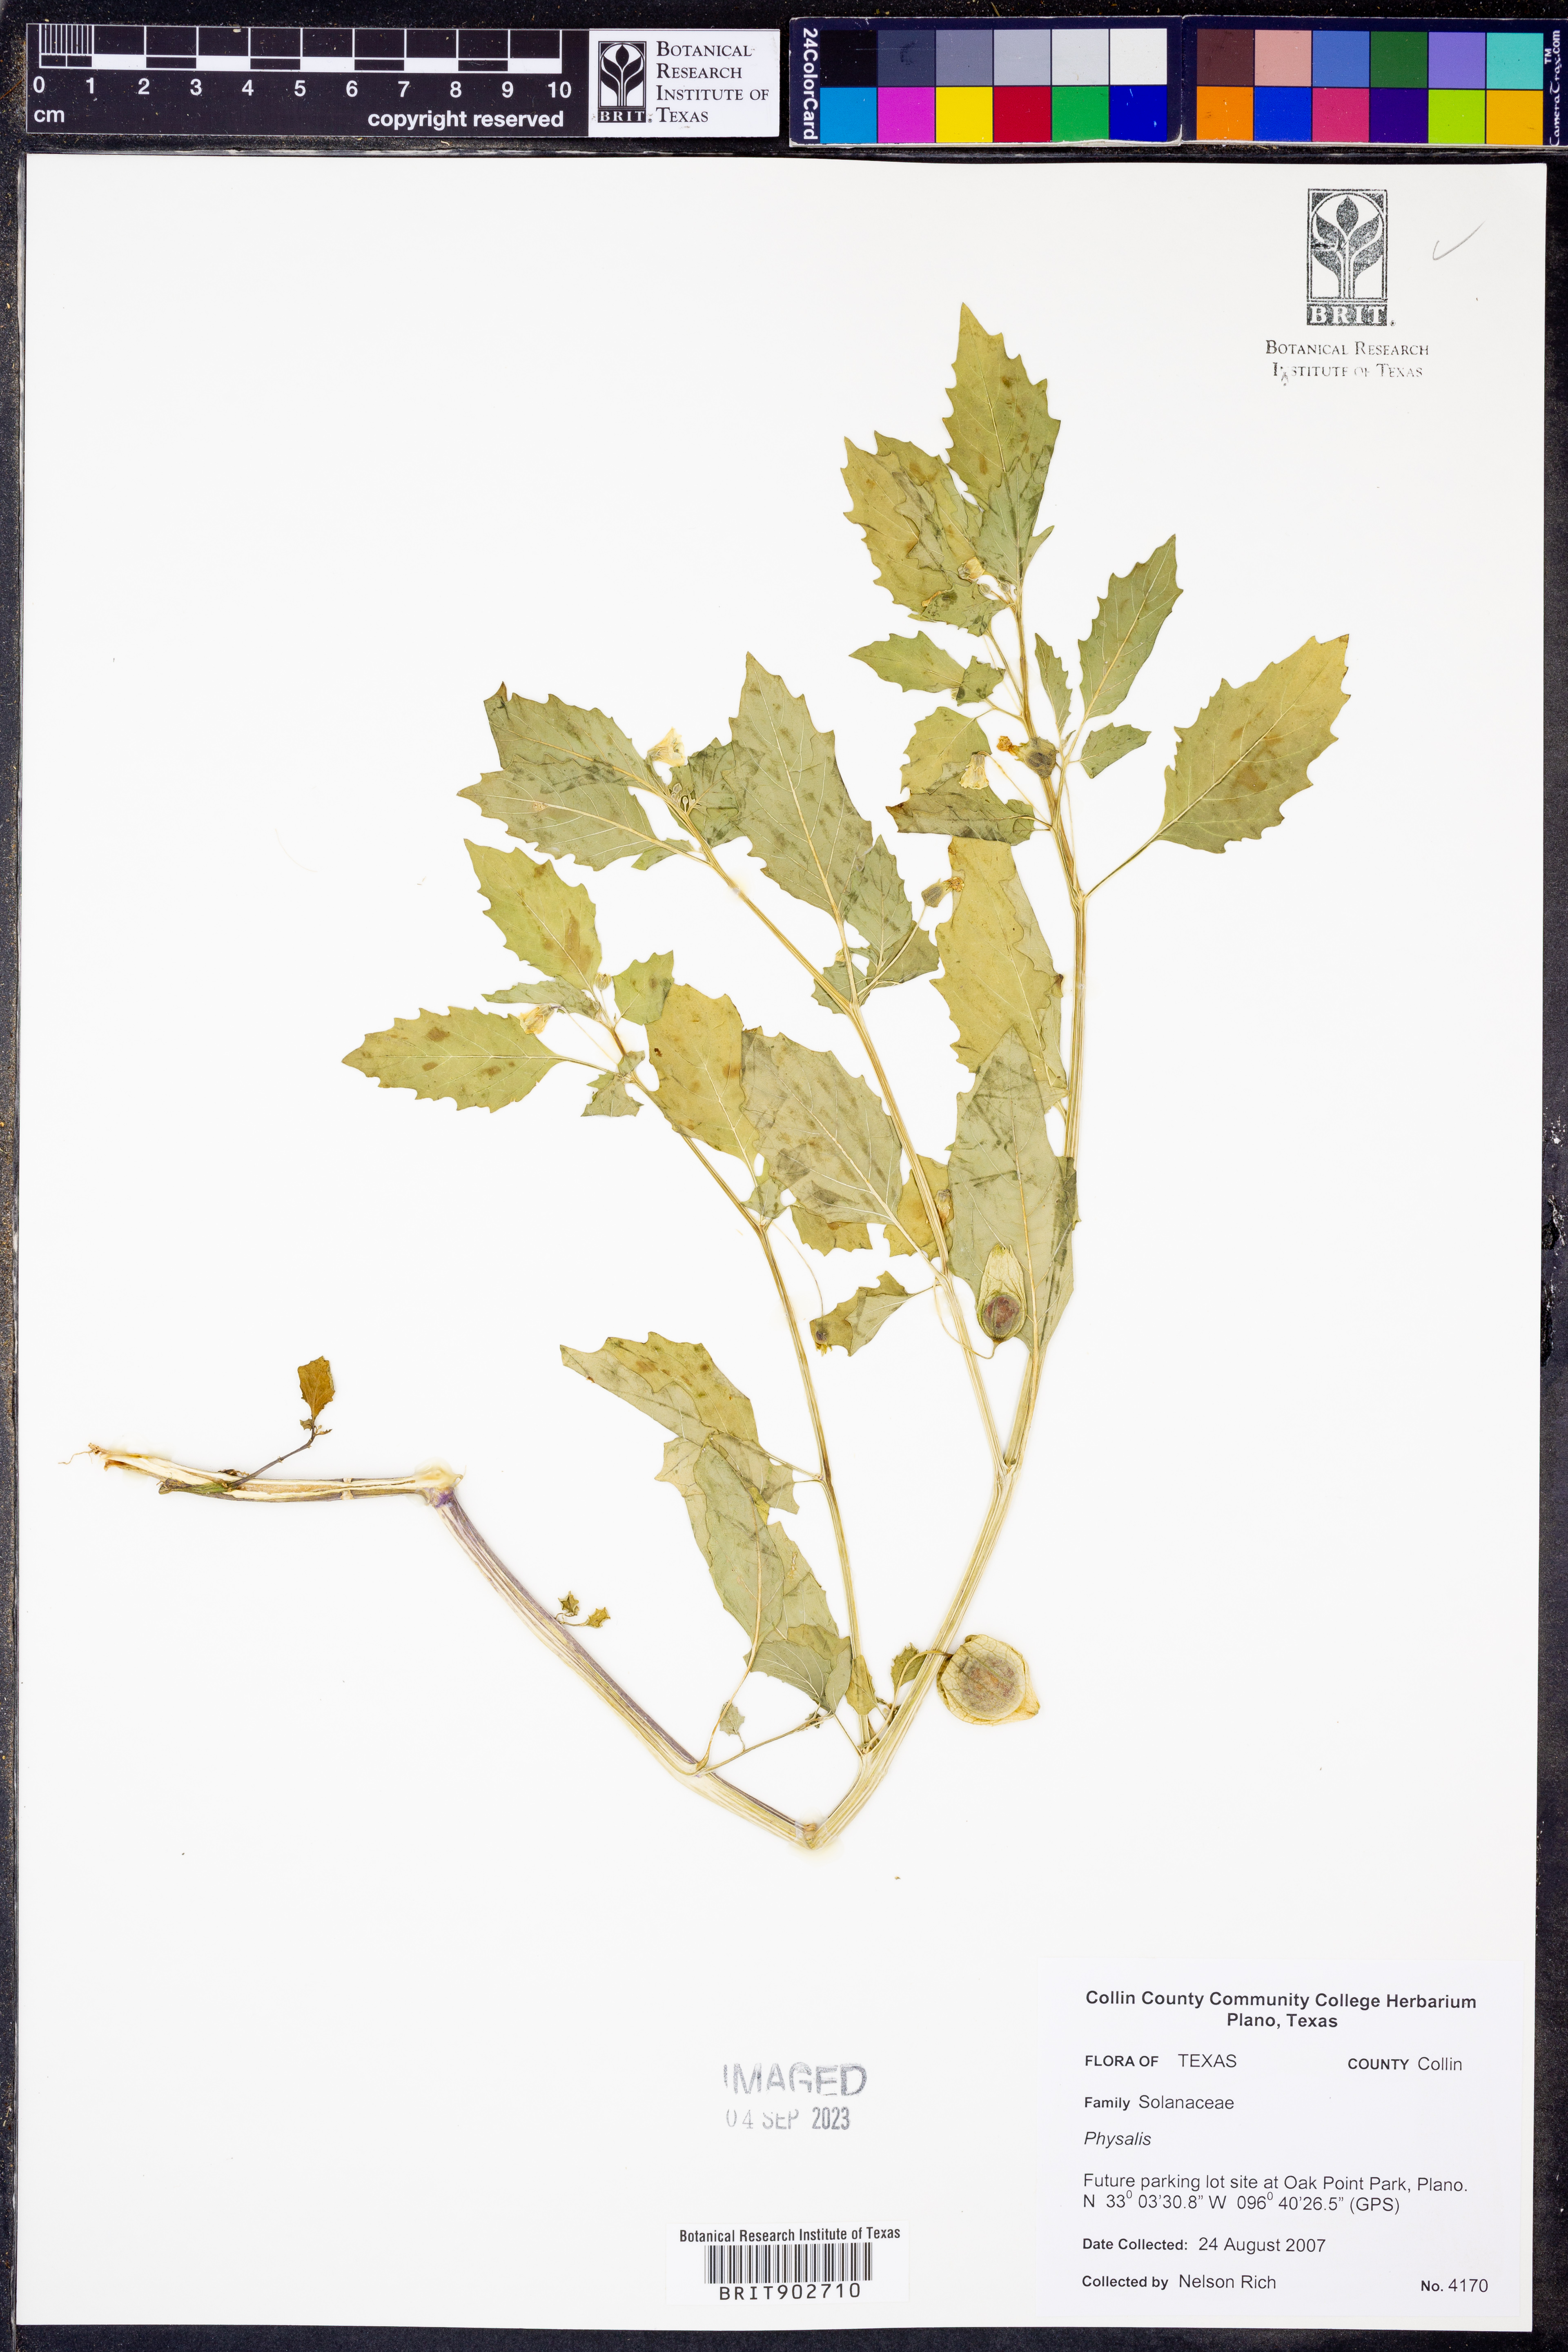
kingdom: Plantae
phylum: Tracheophyta
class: Magnoliopsida
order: Solanales
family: Solanaceae
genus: Physalis
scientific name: Physalis
